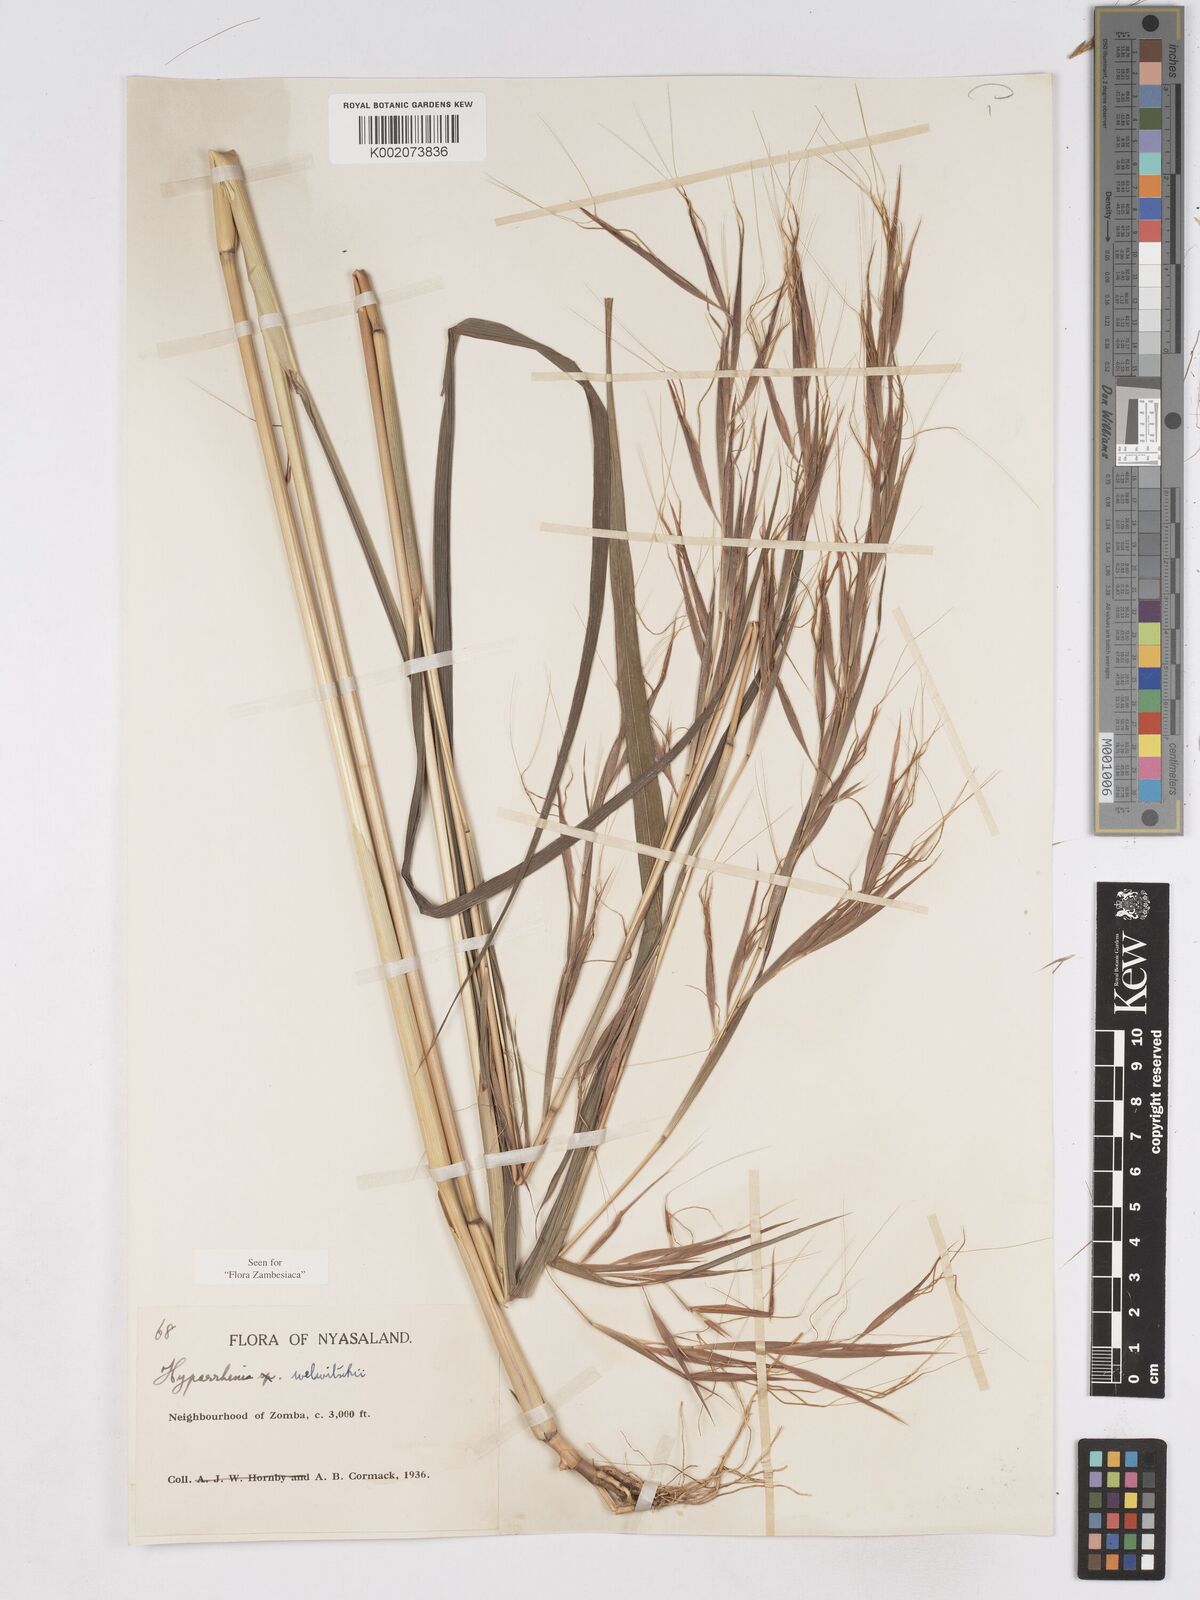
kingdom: Plantae
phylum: Tracheophyta
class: Liliopsida
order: Poales
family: Poaceae
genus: Hyparrhenia
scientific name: Hyparrhenia welwitschii
